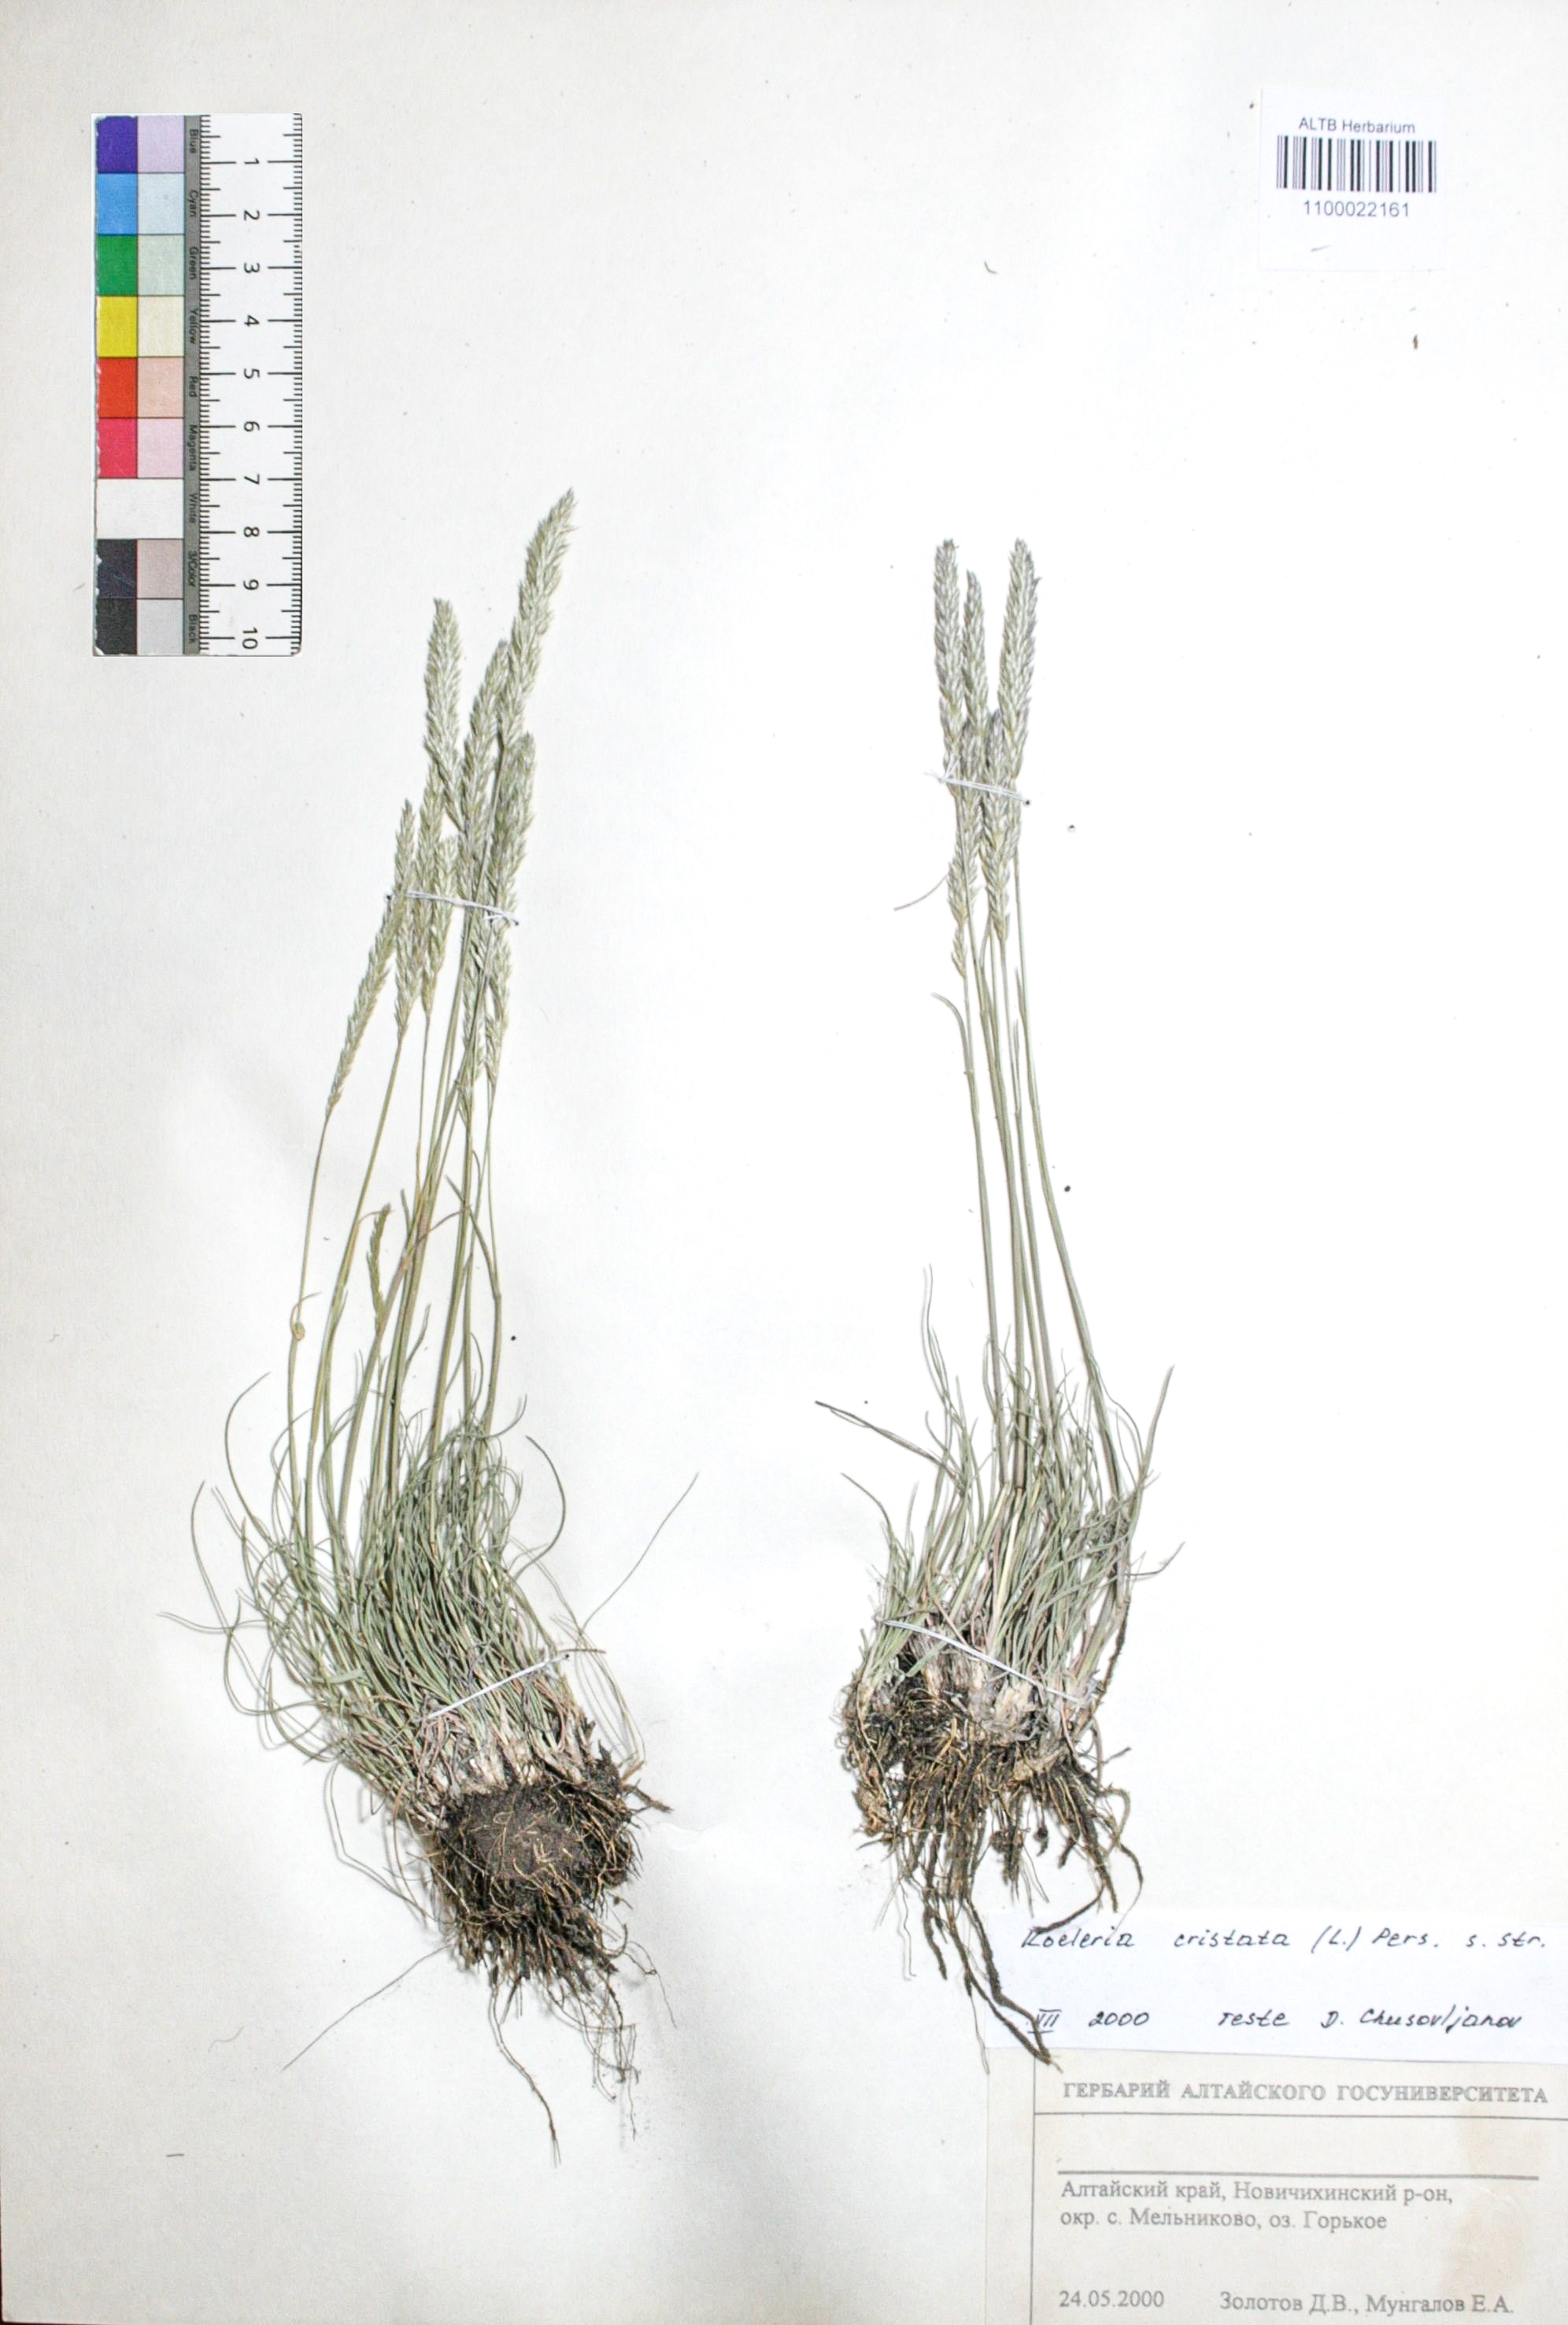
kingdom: Plantae
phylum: Tracheophyta
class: Liliopsida
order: Poales
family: Poaceae
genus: Koeleria
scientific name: Koeleria pyramidata
